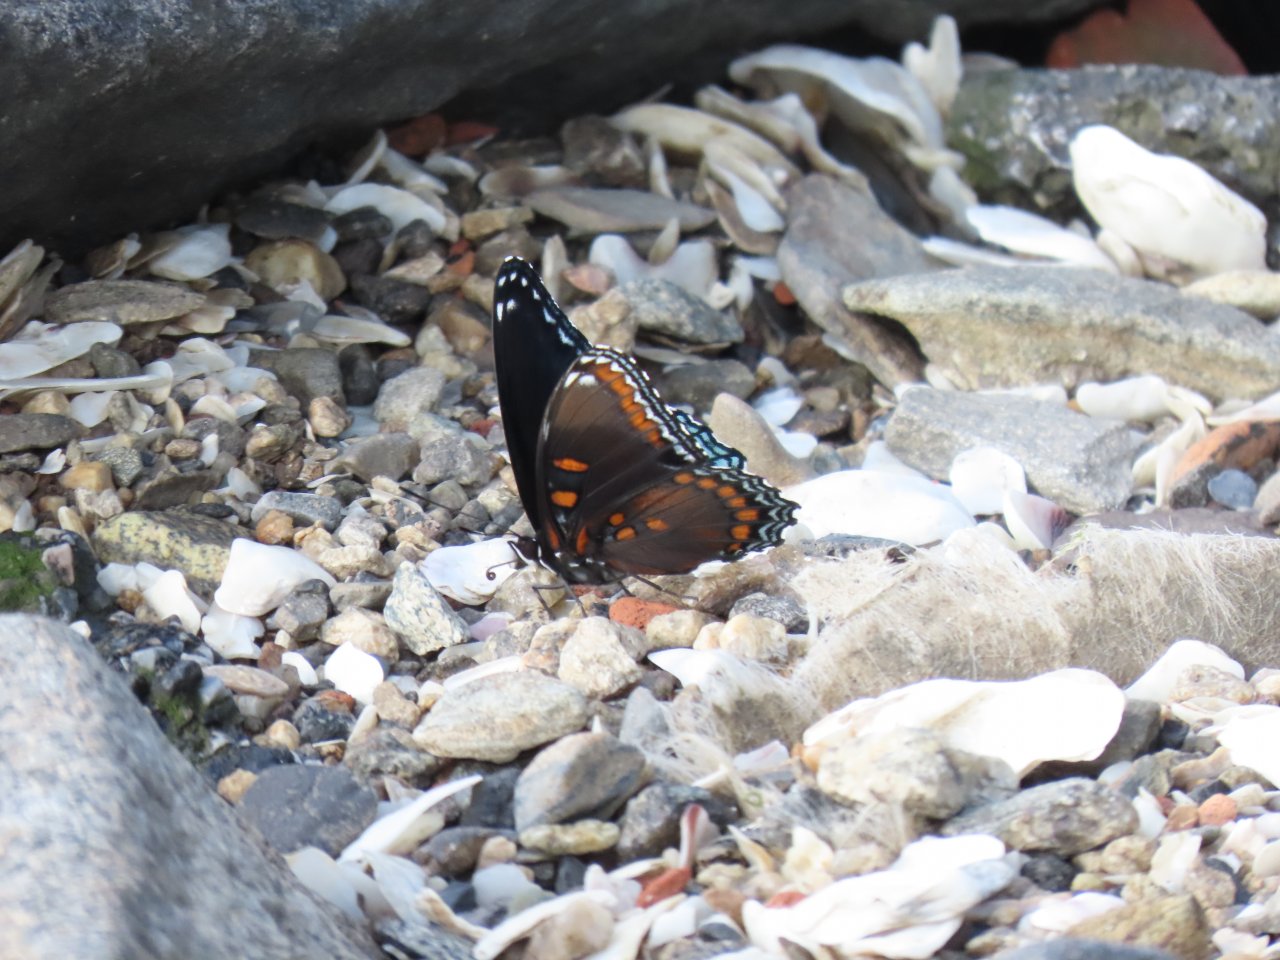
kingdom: Animalia
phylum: Arthropoda
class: Insecta
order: Lepidoptera
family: Nymphalidae
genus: Limenitis
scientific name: Limenitis arthemis
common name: Red-spotted Admiral
